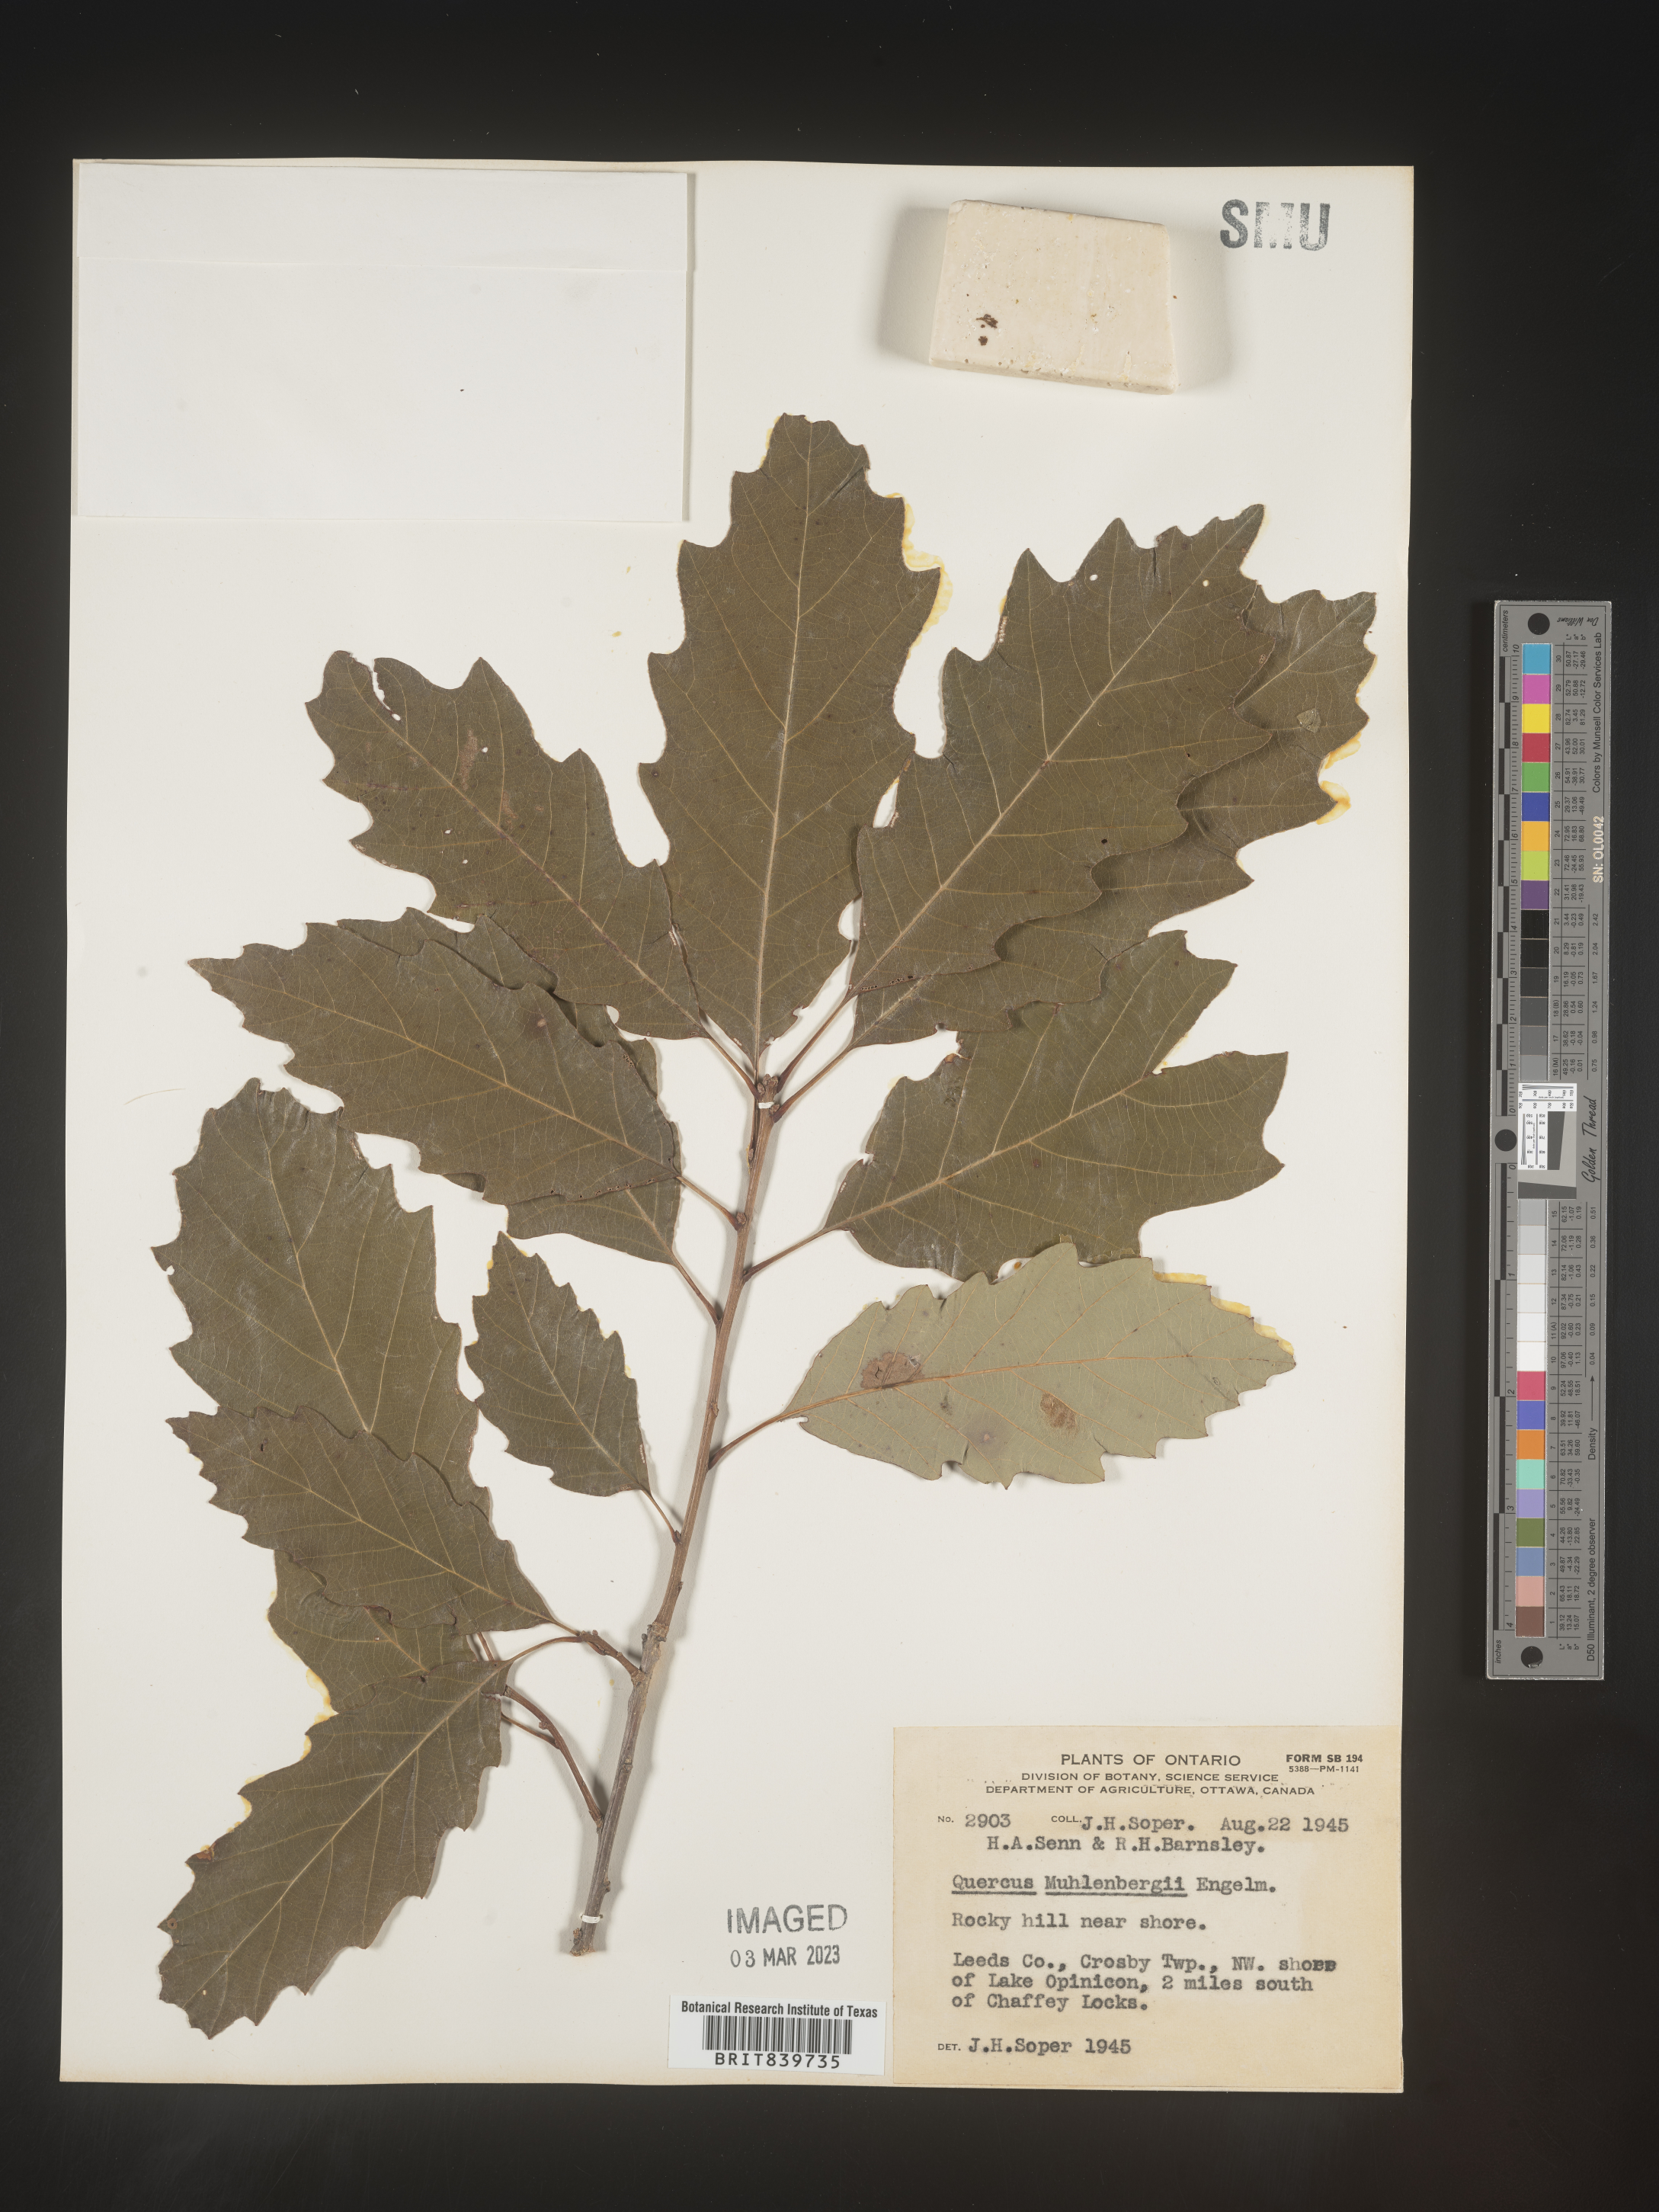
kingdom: Plantae
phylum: Tracheophyta
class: Magnoliopsida
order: Fagales
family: Fagaceae
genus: Quercus
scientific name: Quercus muehlenbergii
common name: Chinkapin oak
